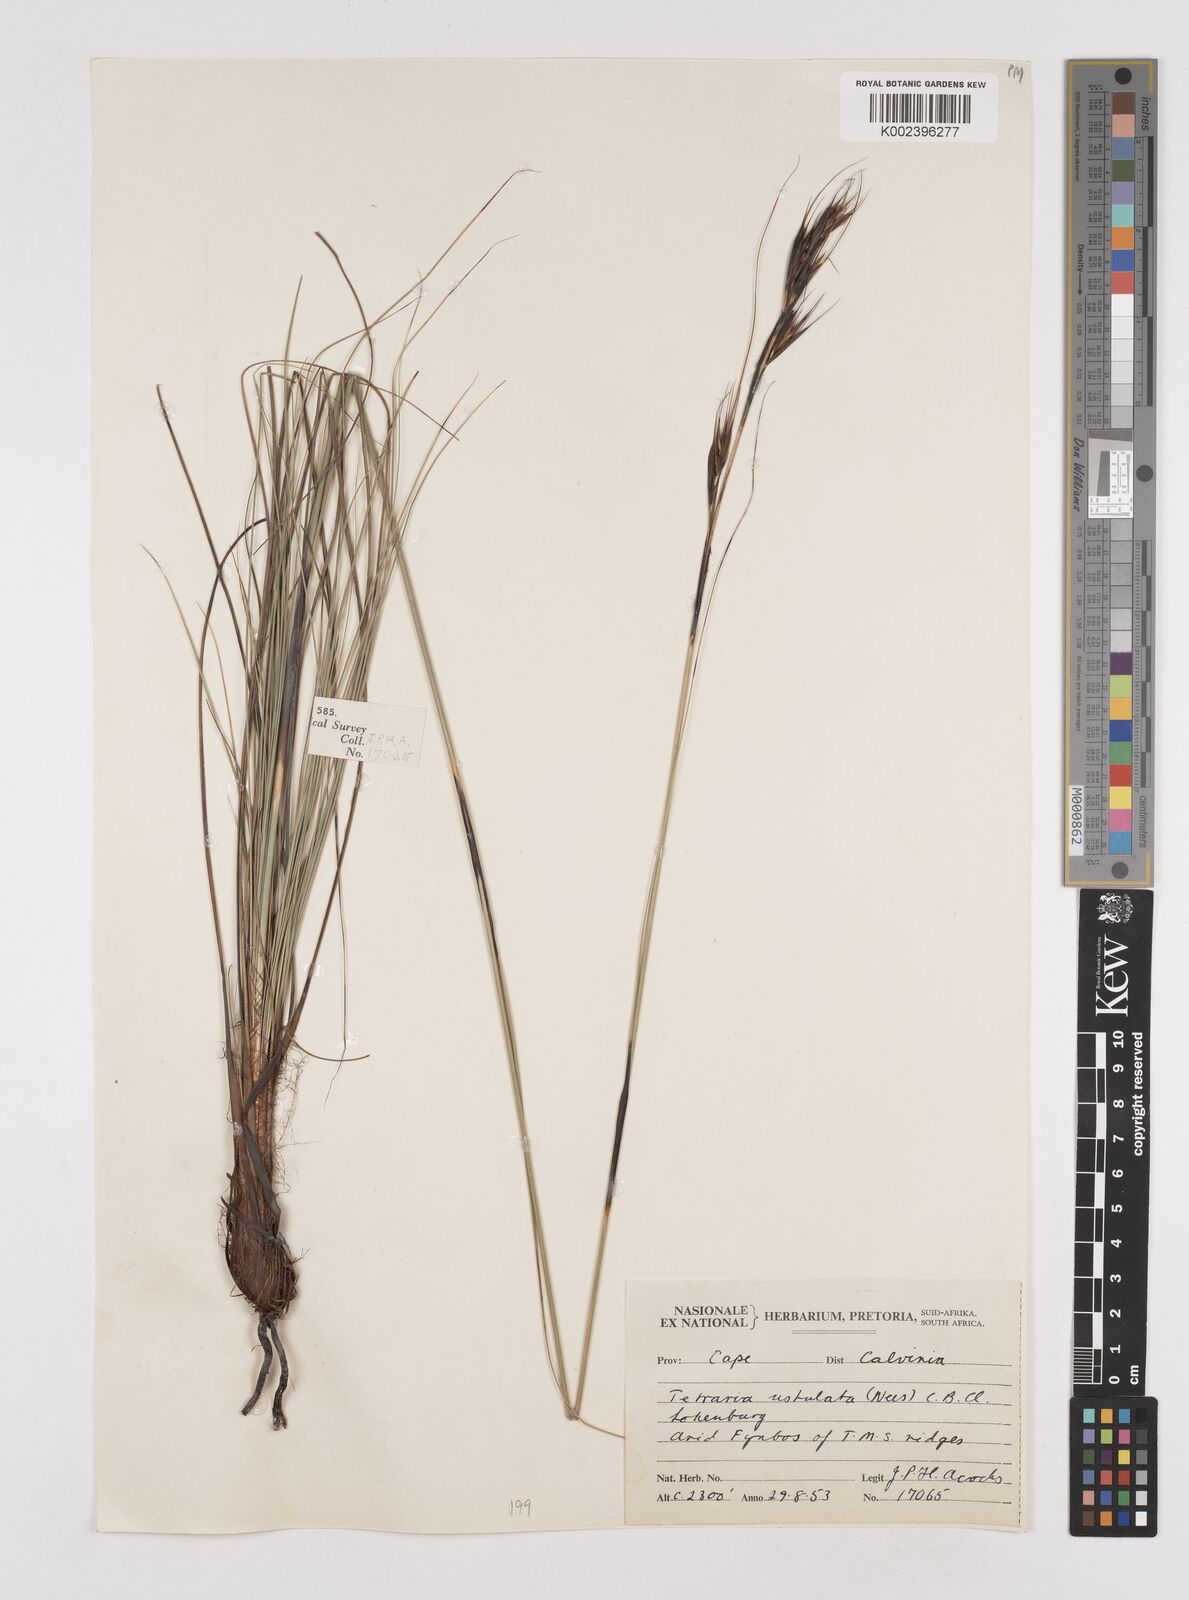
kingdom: Plantae
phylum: Tracheophyta
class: Liliopsida
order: Poales
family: Cyperaceae
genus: Tetraria
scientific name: Tetraria ustulata
